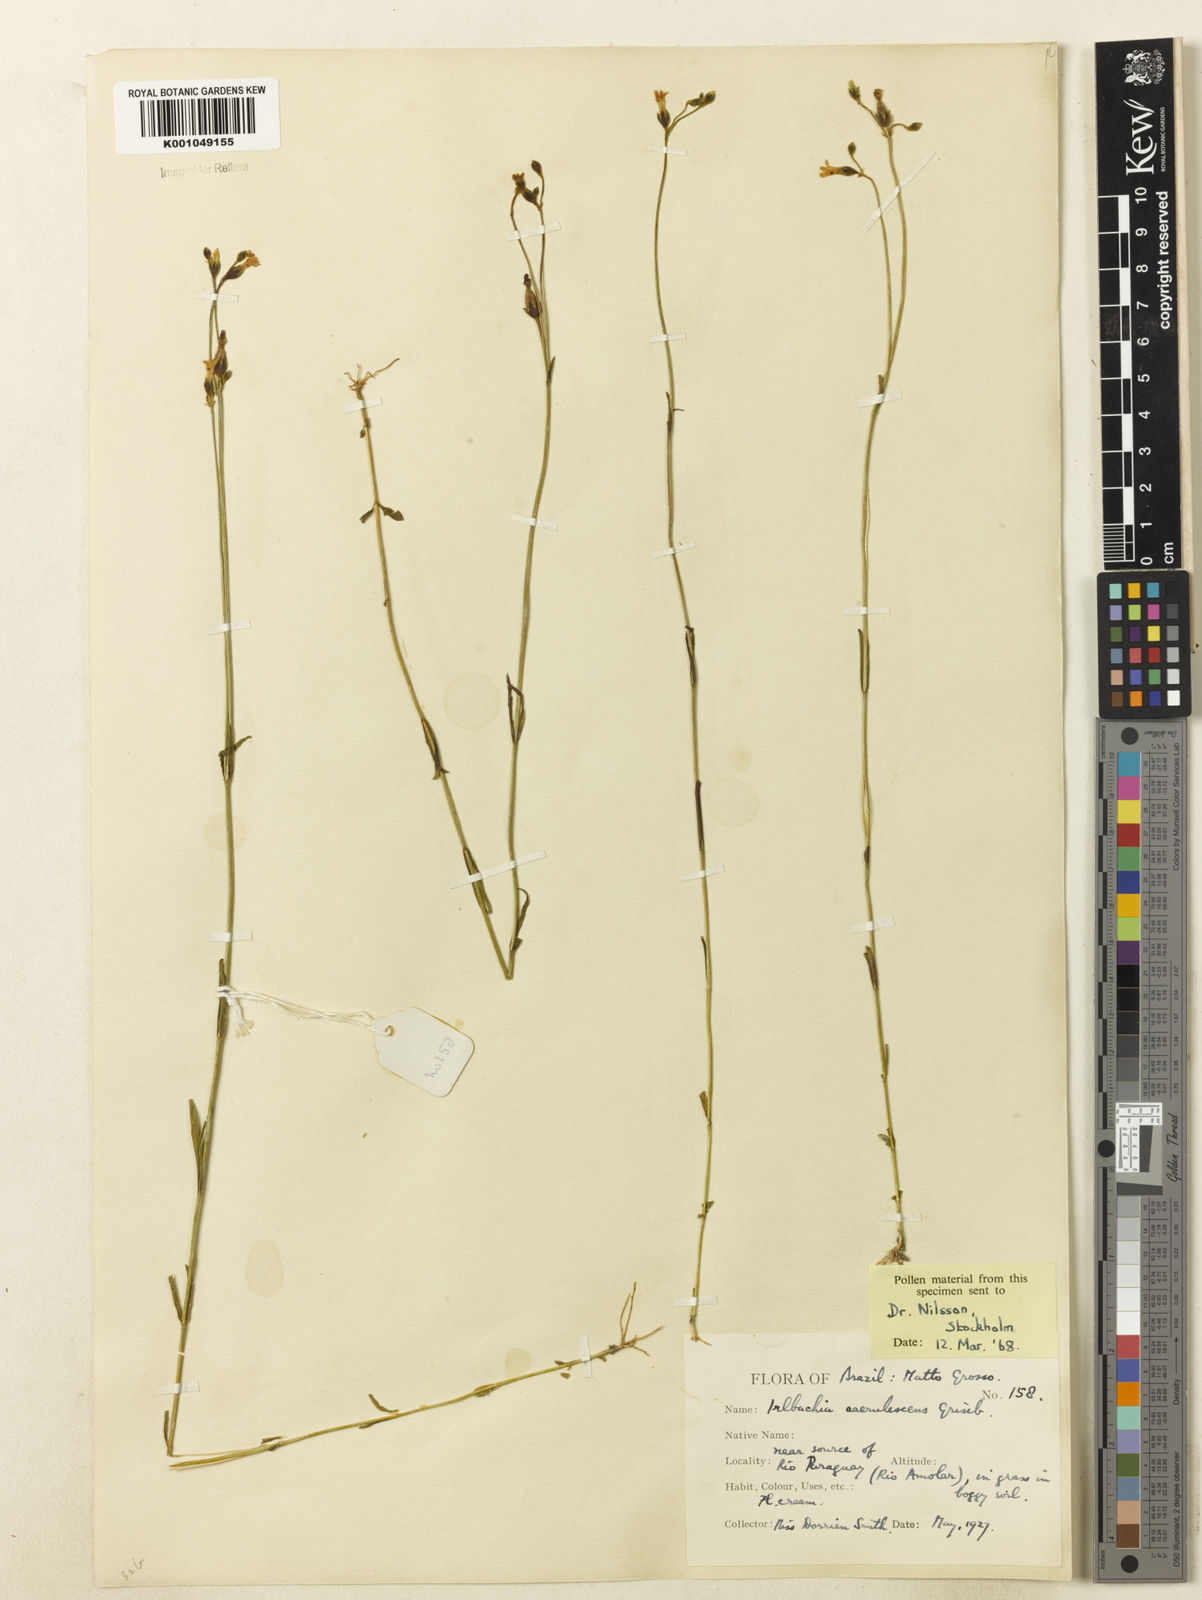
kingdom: Plantae
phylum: Tracheophyta
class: Magnoliopsida
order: Gentianales
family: Gentianaceae
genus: Tetrapollinia
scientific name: Tetrapollinia caerulescens
